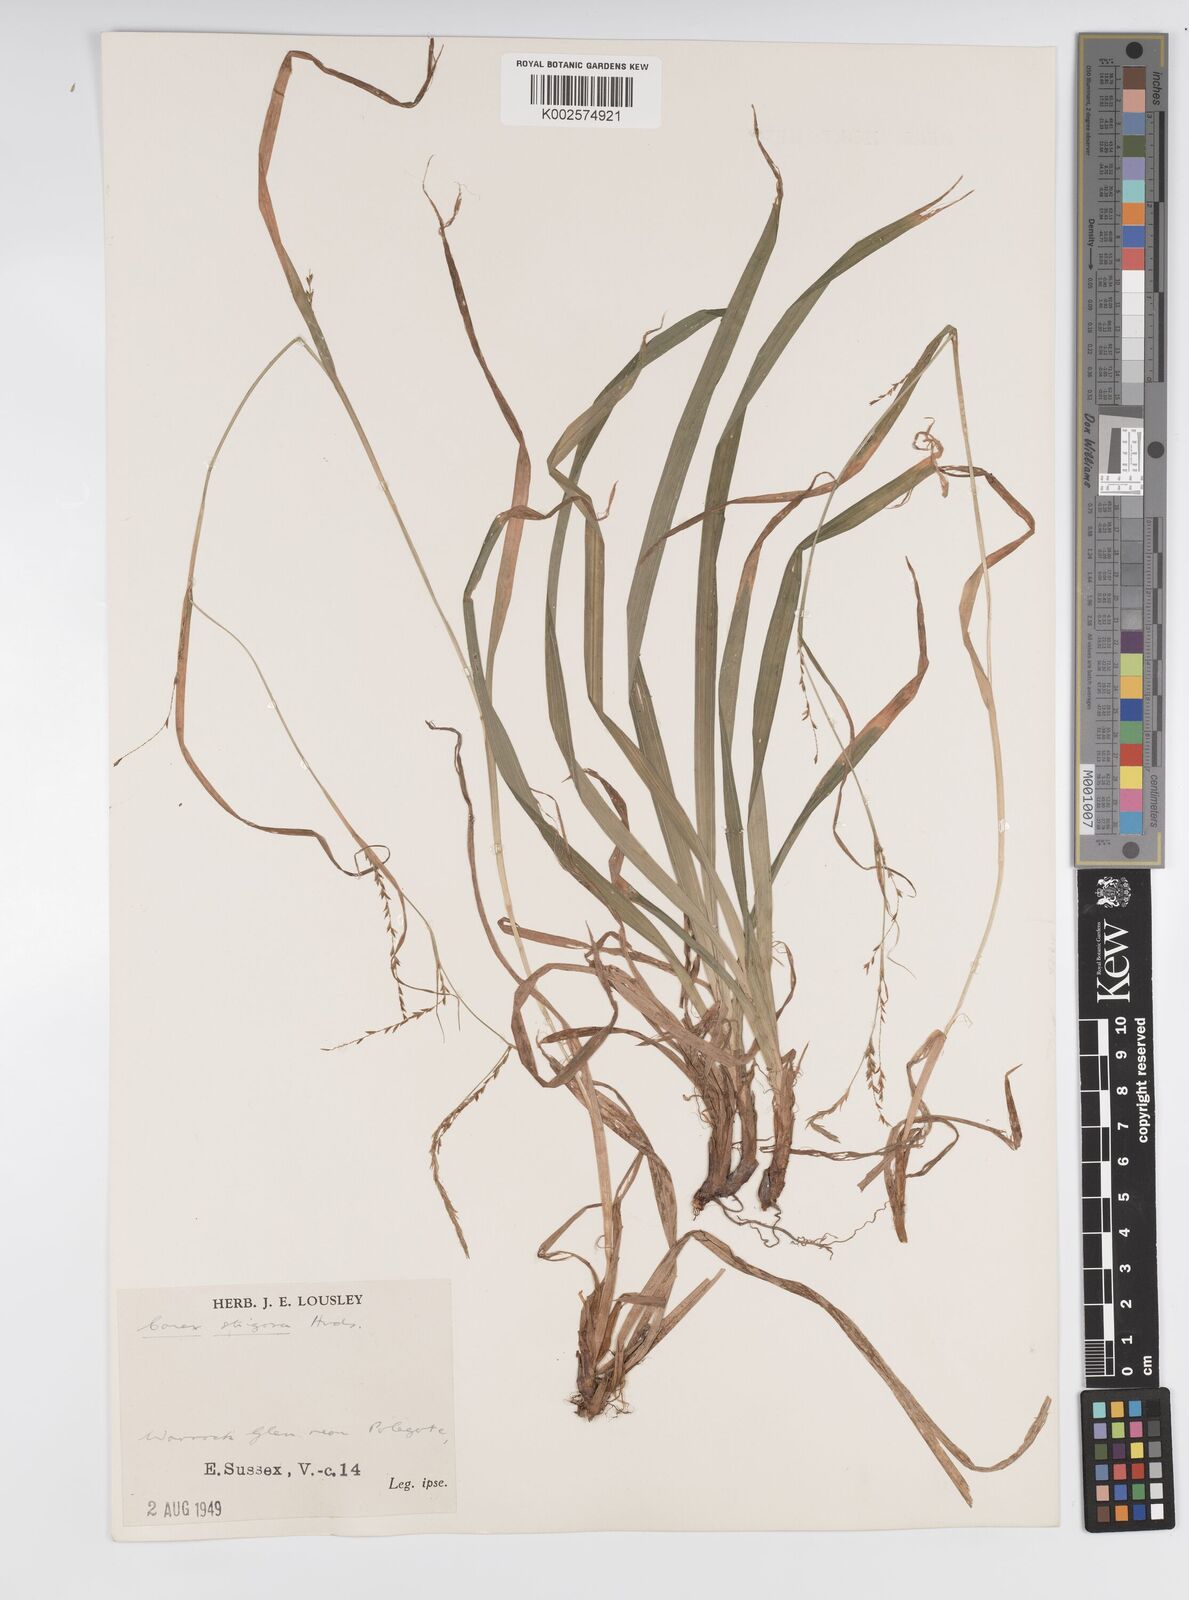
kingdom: Plantae
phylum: Tracheophyta
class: Liliopsida
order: Poales
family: Cyperaceae
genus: Carex
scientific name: Carex strigosa
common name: Thin-spiked wood-sedge
